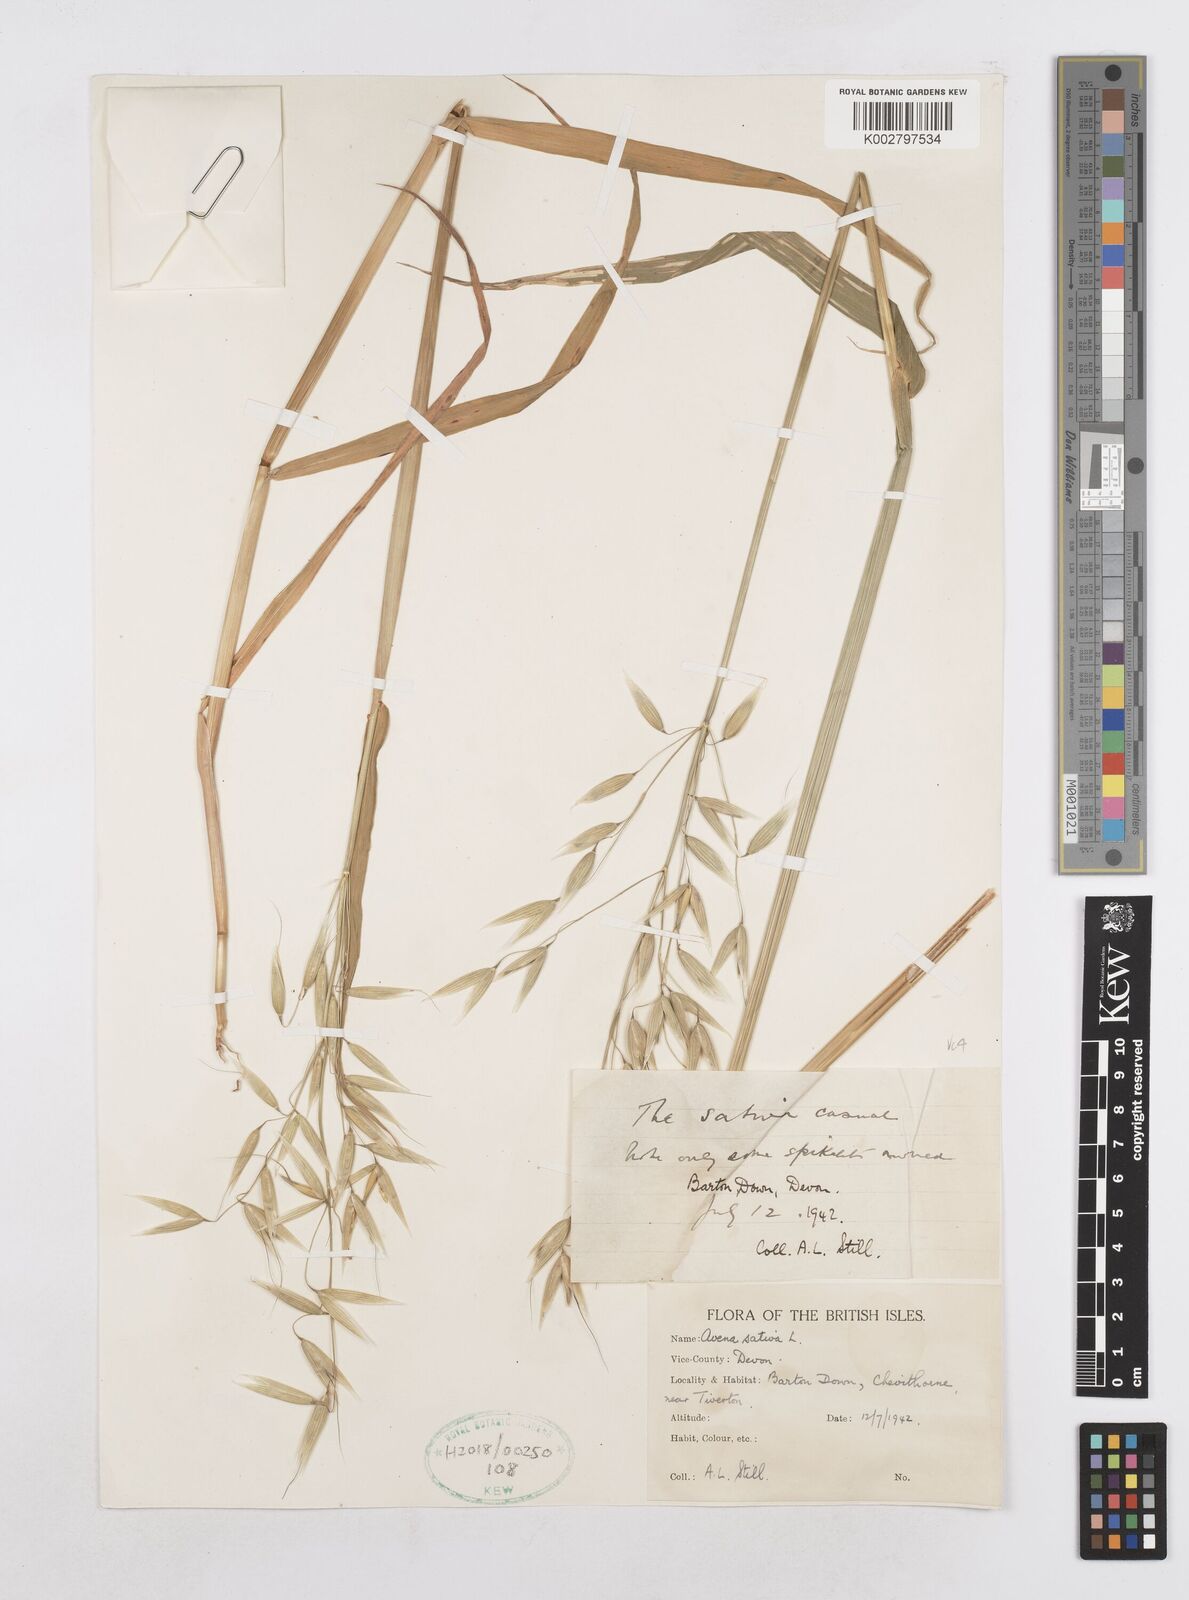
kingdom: Plantae
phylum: Tracheophyta
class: Liliopsida
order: Poales
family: Poaceae
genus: Avena
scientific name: Avena sativa
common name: Oat
